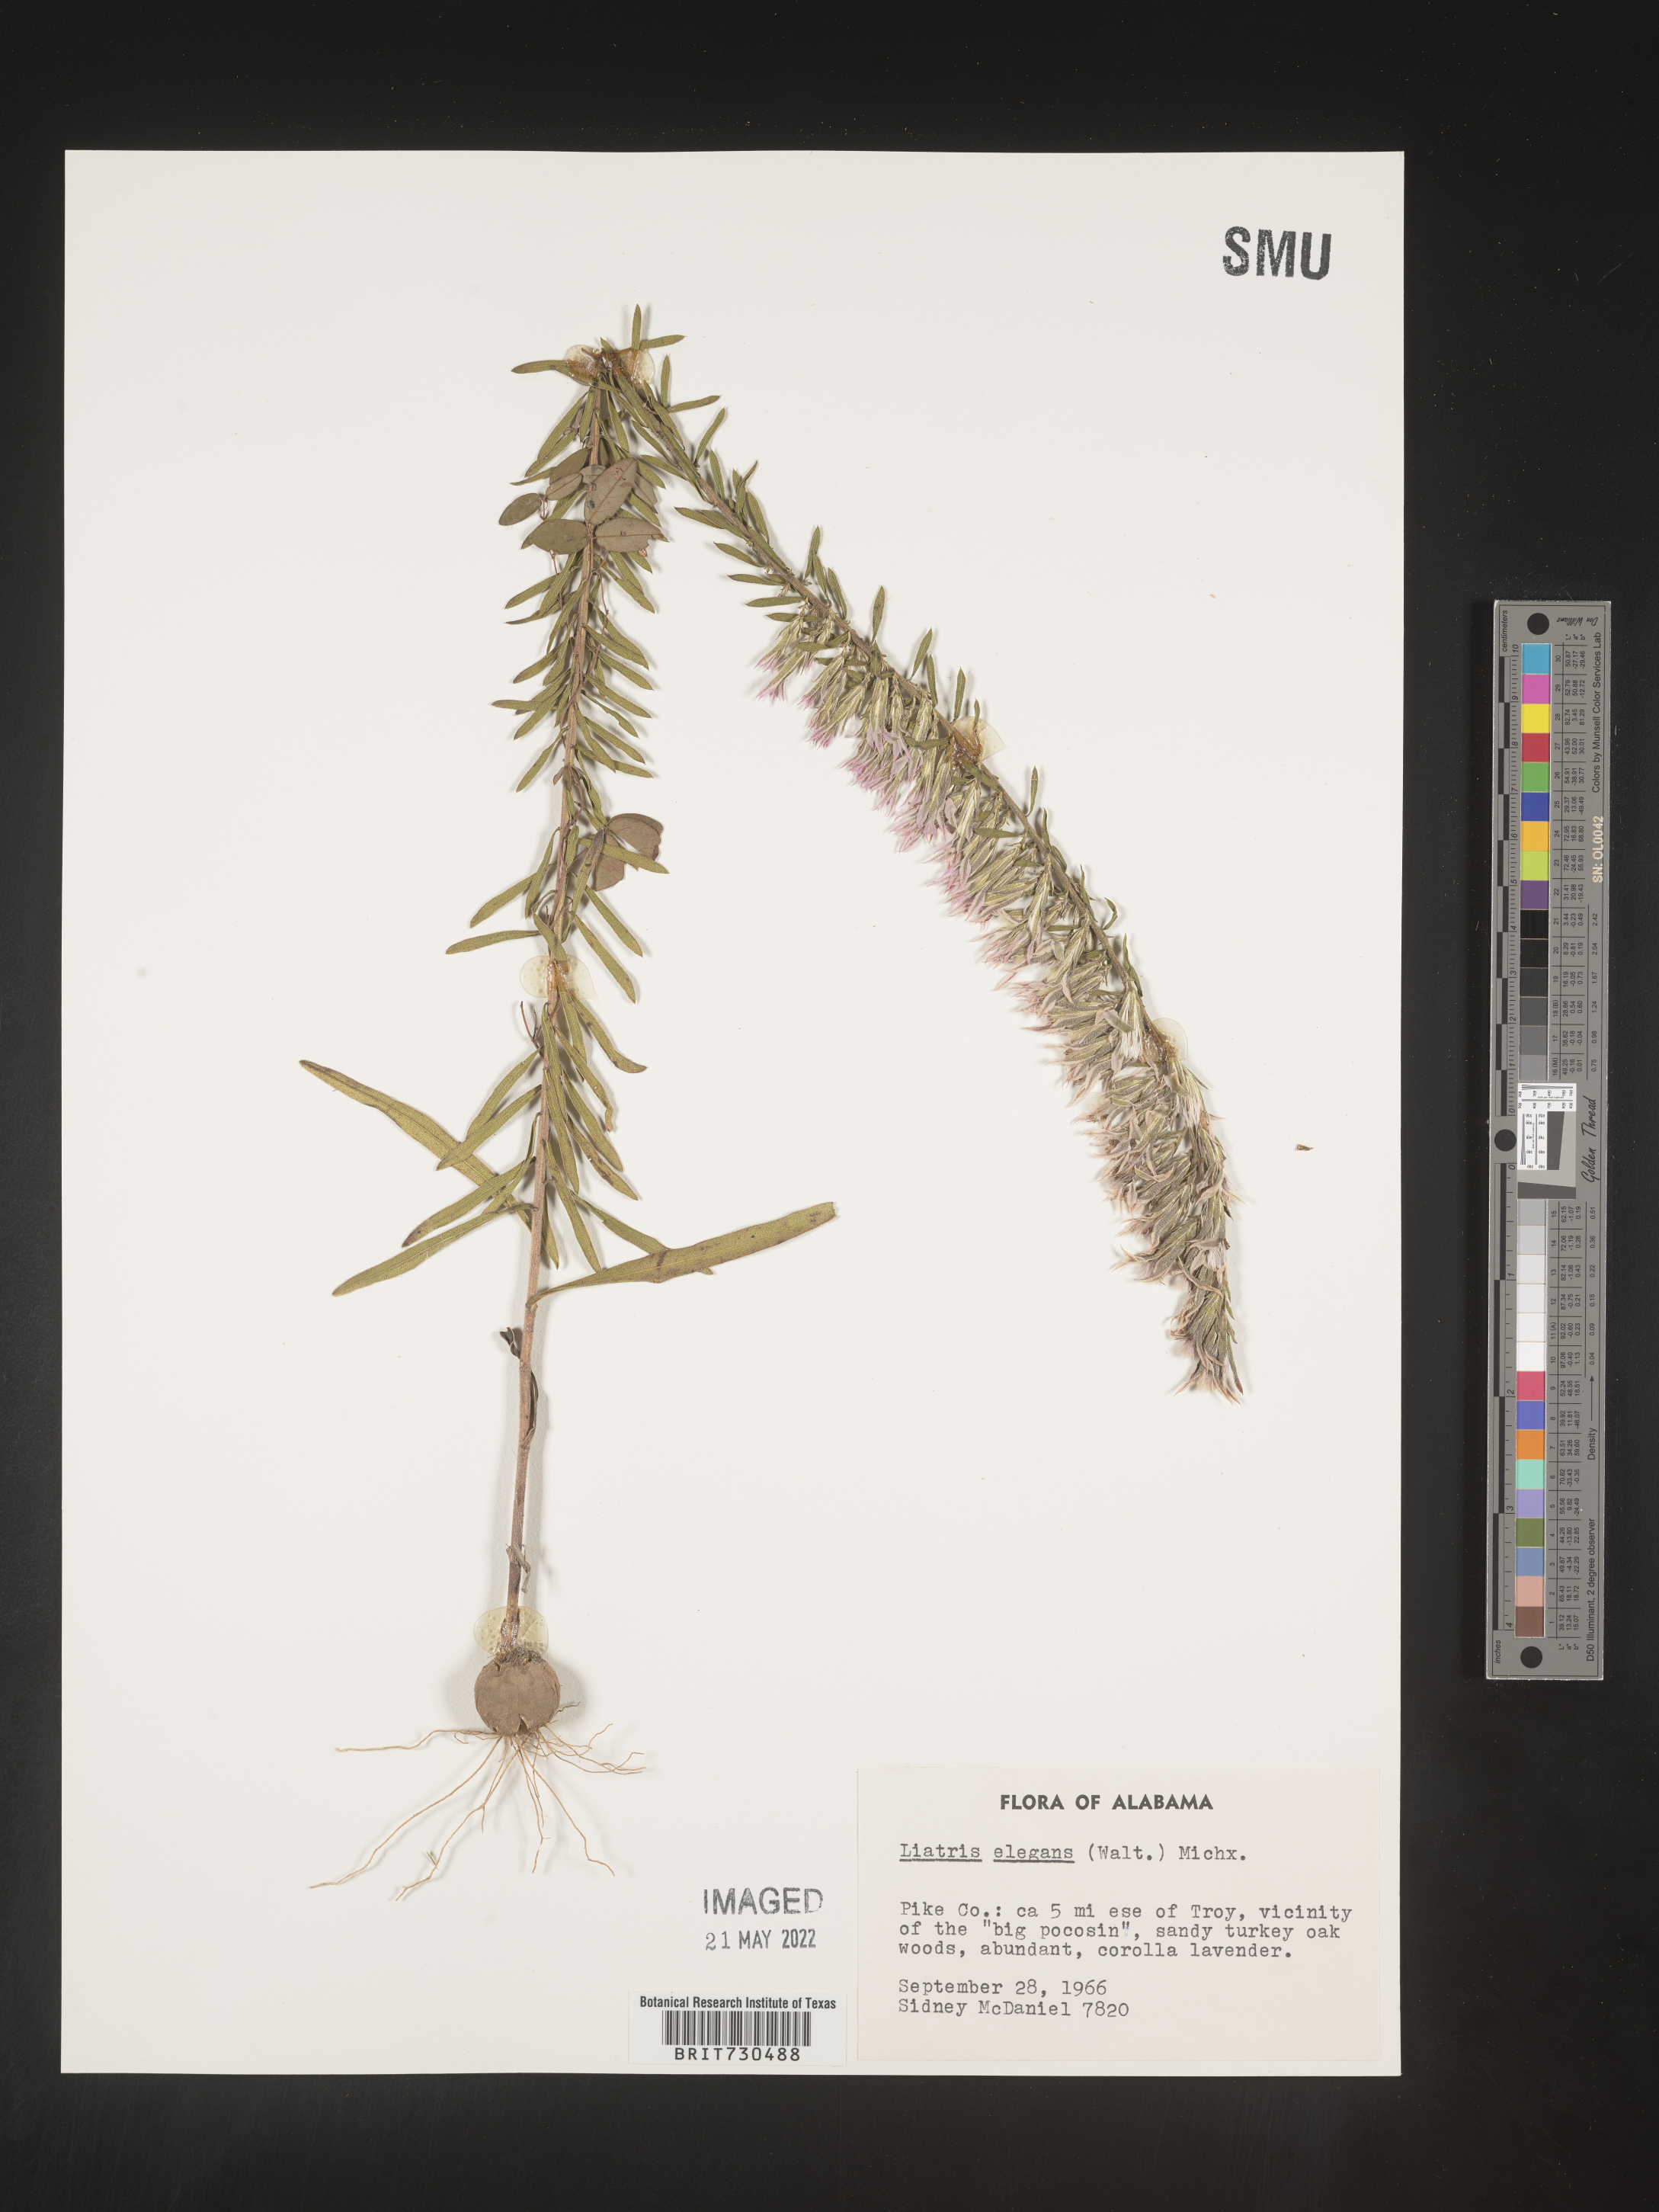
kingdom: Plantae
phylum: Tracheophyta
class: Magnoliopsida
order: Asterales
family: Asteraceae
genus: Liatris
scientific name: Liatris elegans
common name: Pinkscale gayfeather
